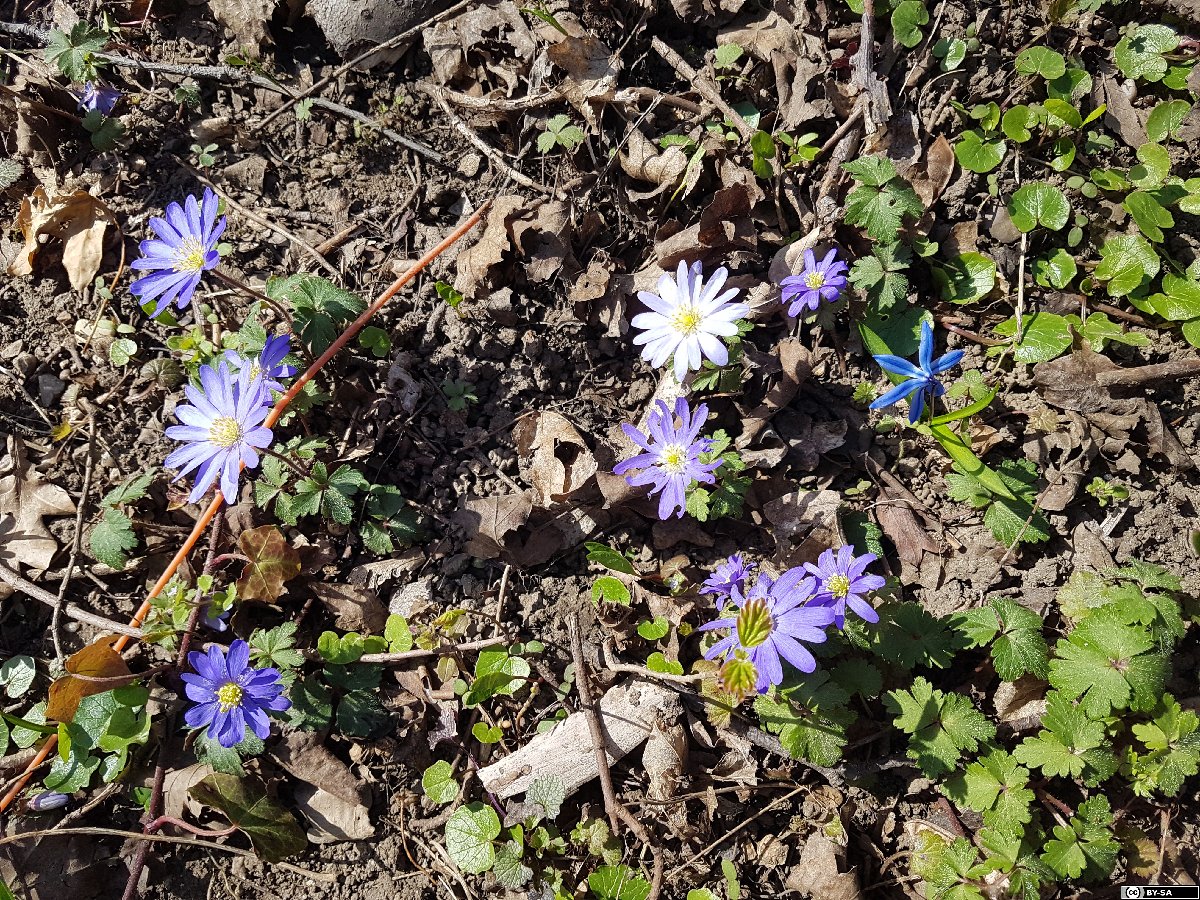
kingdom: Plantae
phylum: Tracheophyta
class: Magnoliopsida
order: Ranunculales
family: Ranunculaceae
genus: Anemone
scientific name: Anemone blanda
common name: Balkan anemone
